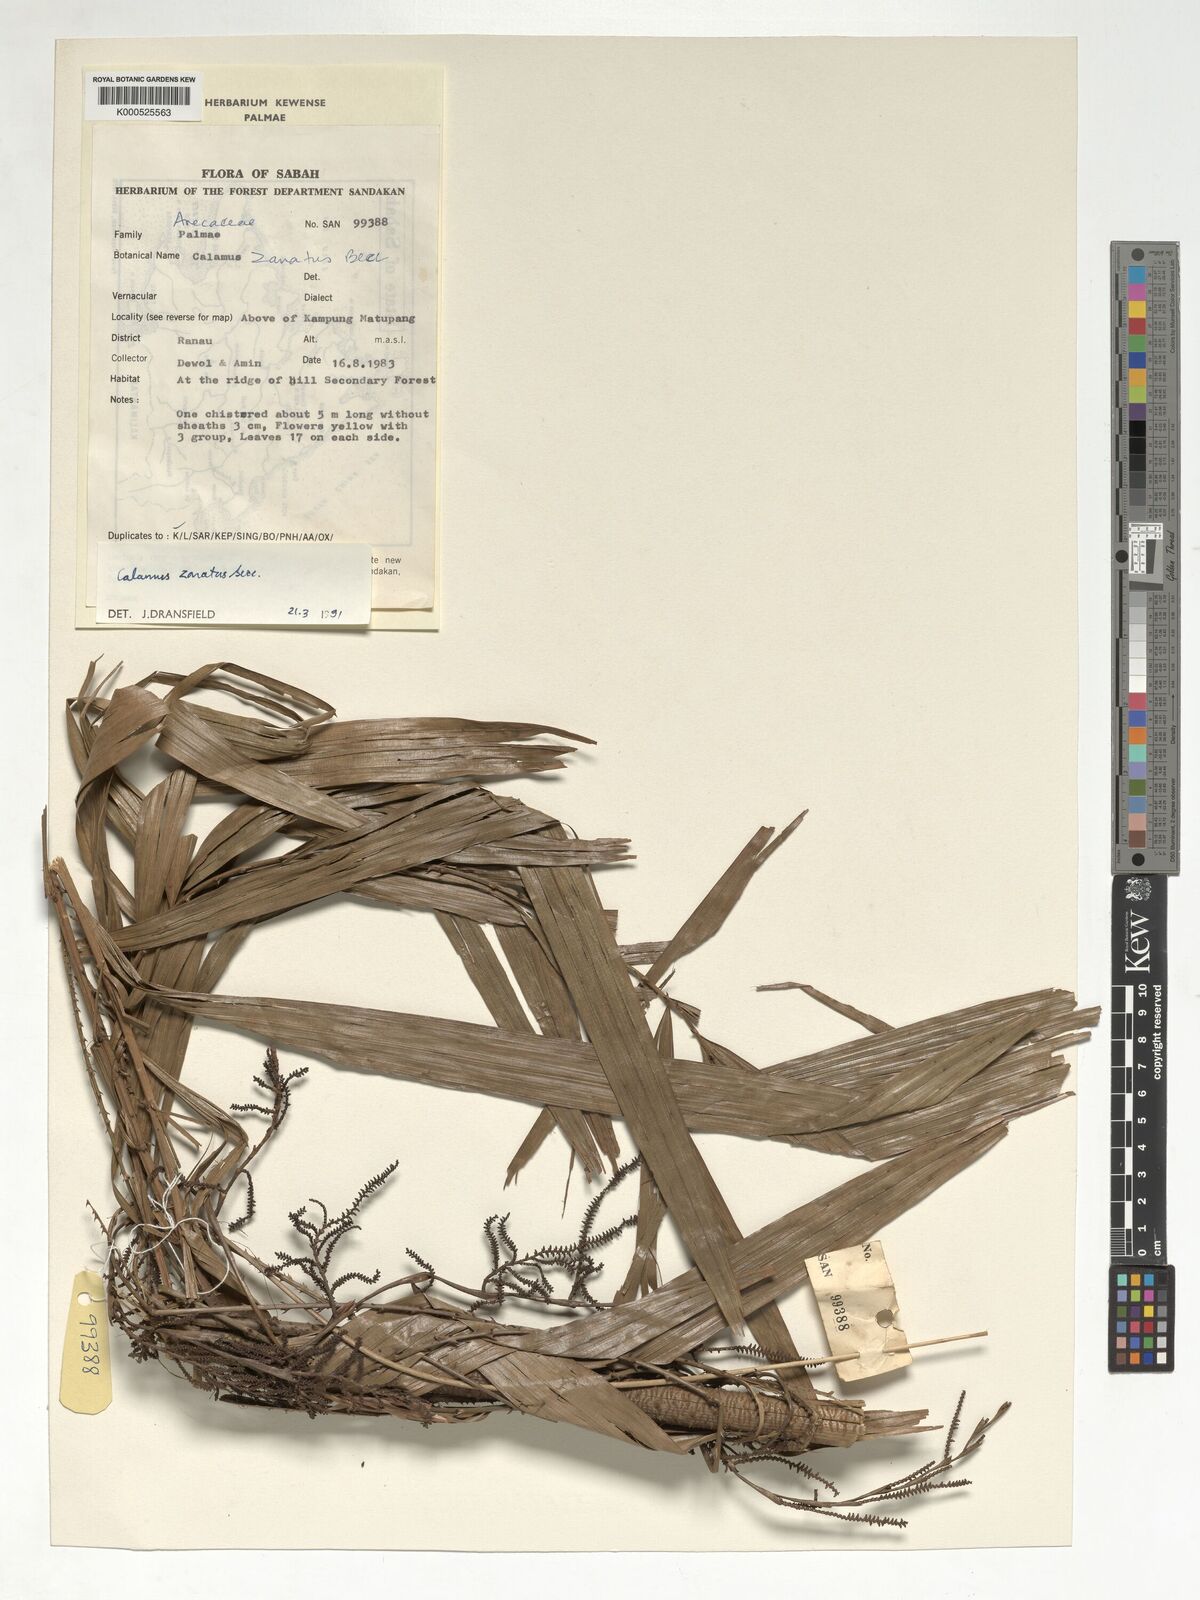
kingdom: Plantae
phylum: Tracheophyta
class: Liliopsida
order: Arecales
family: Arecaceae
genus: Calamus
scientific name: Calamus zonatus
